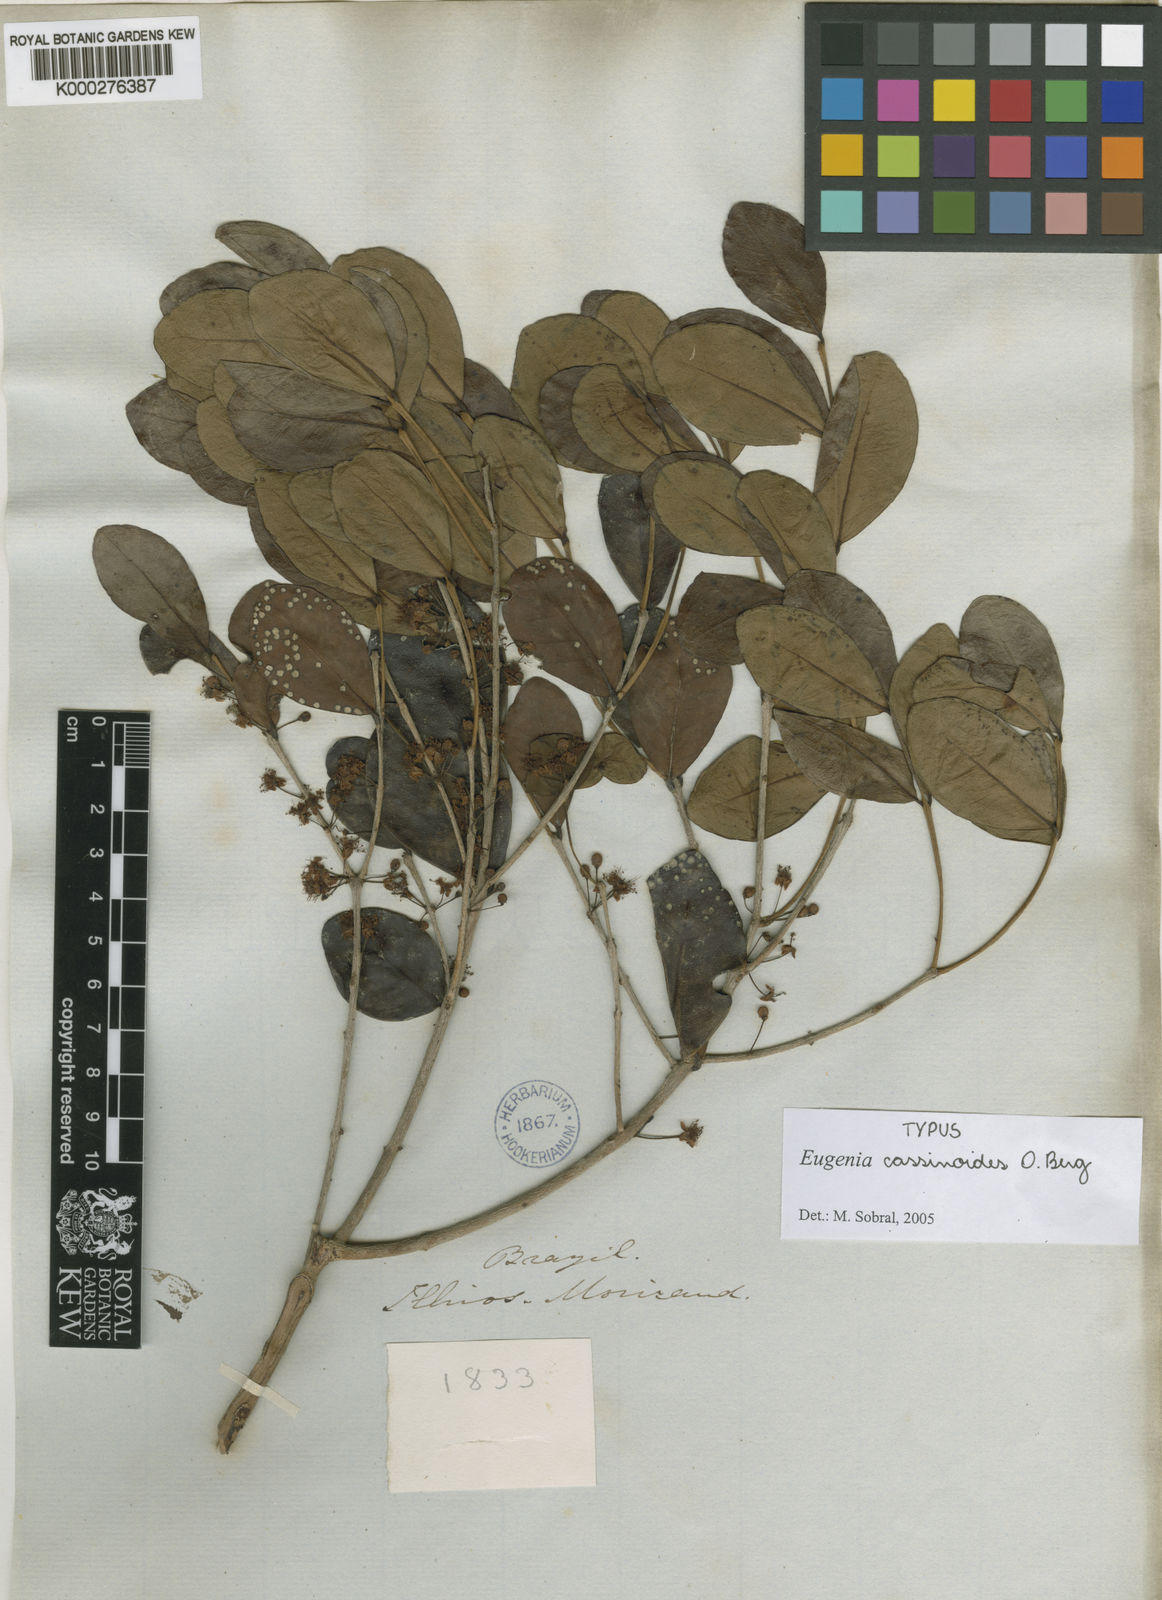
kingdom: Plantae
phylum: Tracheophyta
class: Magnoliopsida
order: Myrtales
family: Myrtaceae
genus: Eugenia
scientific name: Eugenia astringens
